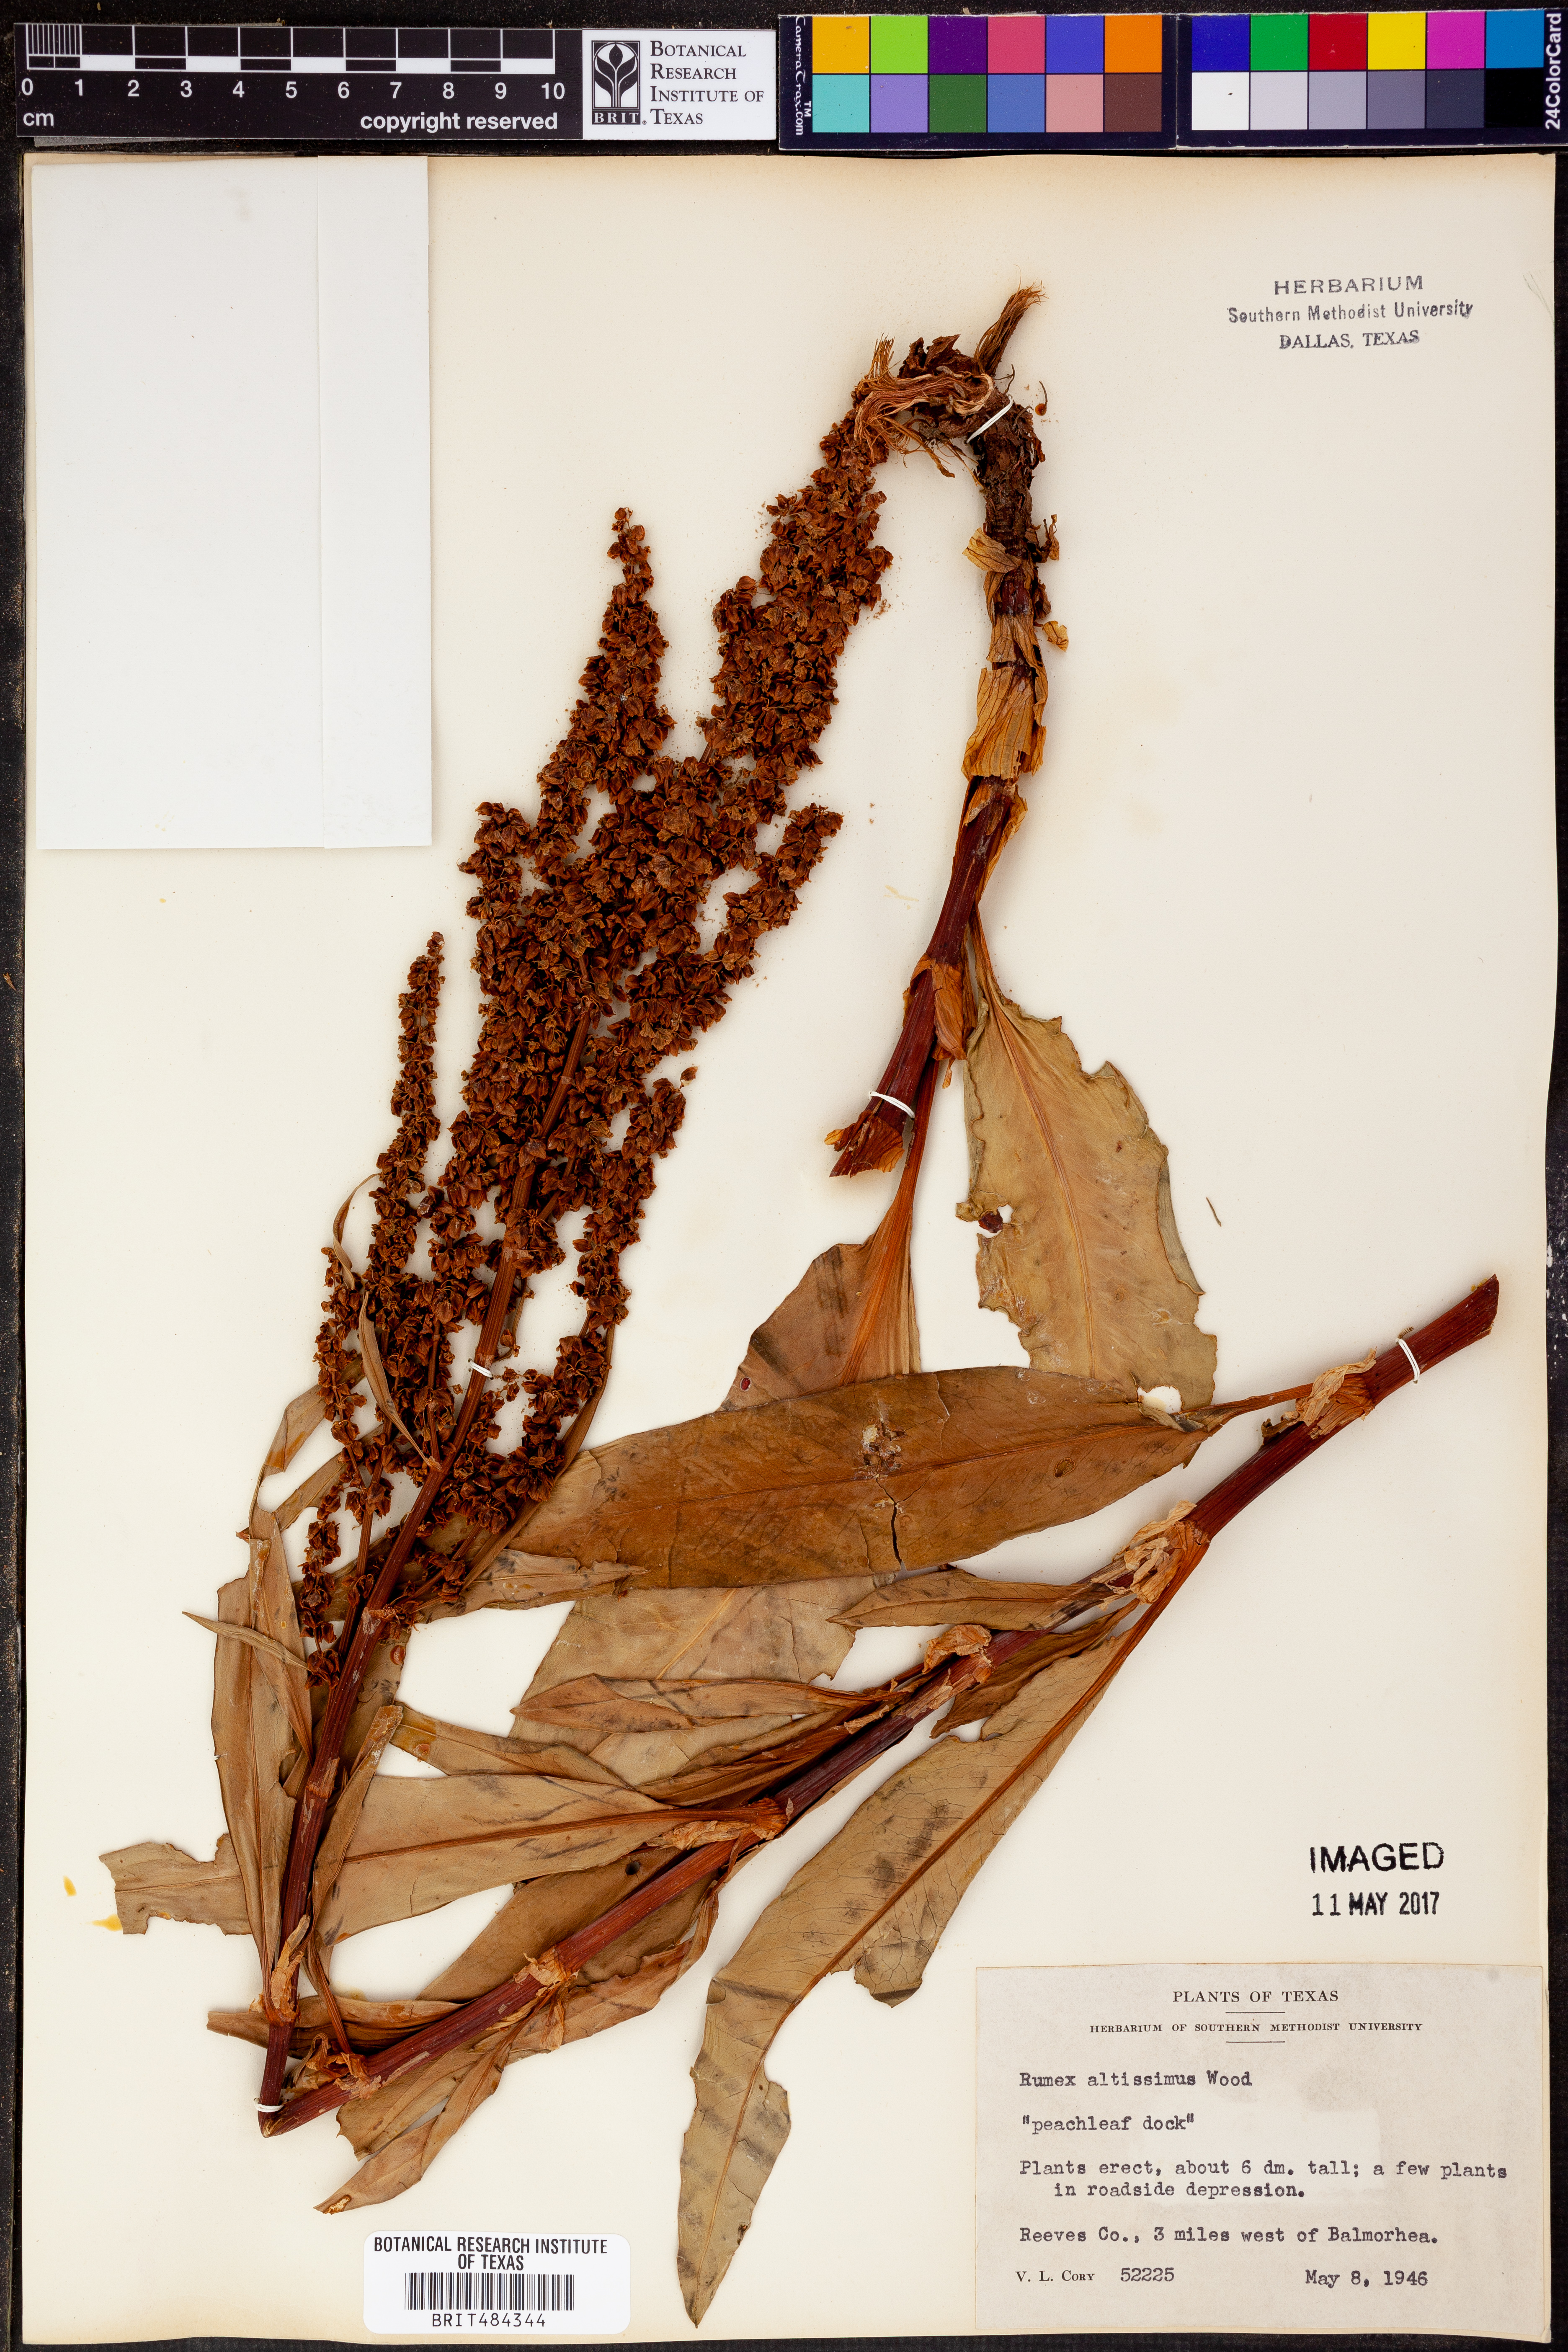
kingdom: Plantae
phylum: Tracheophyta
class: Magnoliopsida
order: Caryophyllales
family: Polygonaceae
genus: Rumex
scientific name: Rumex altissimus
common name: Smooth dock
